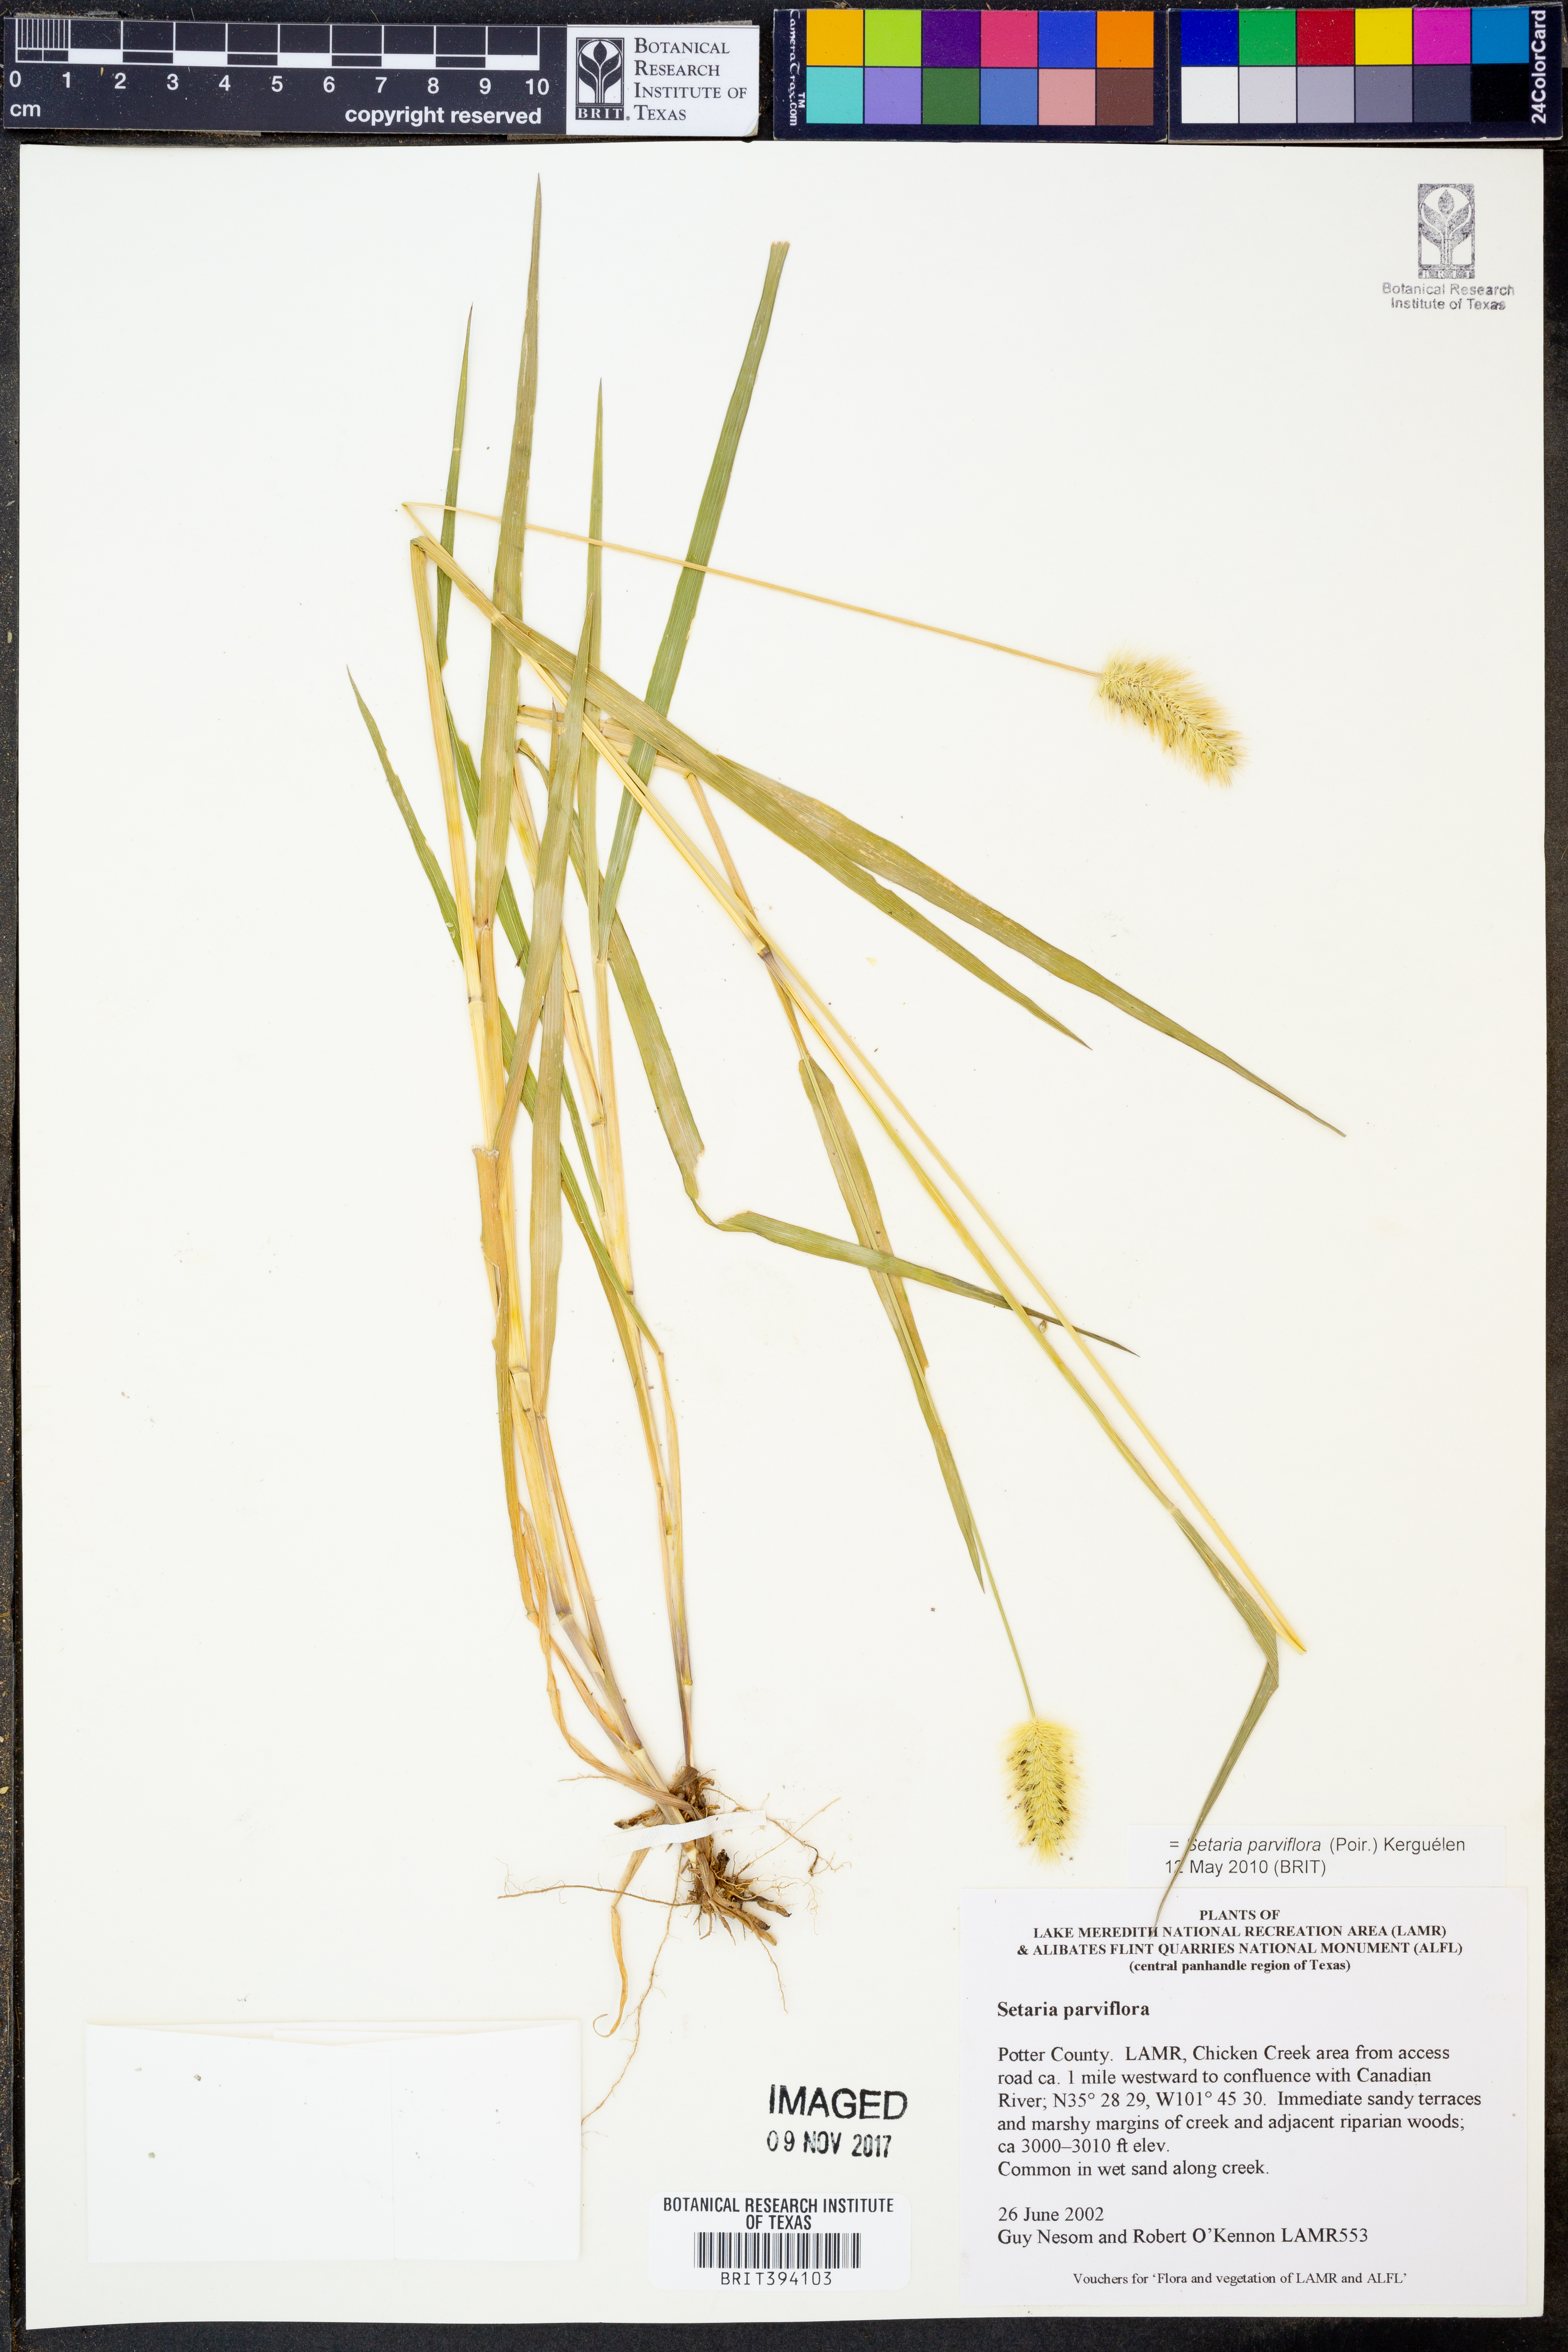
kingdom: Plantae
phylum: Tracheophyta
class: Liliopsida
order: Poales
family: Poaceae
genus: Setaria
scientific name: Setaria parviflora
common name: Knotroot bristle-grass
